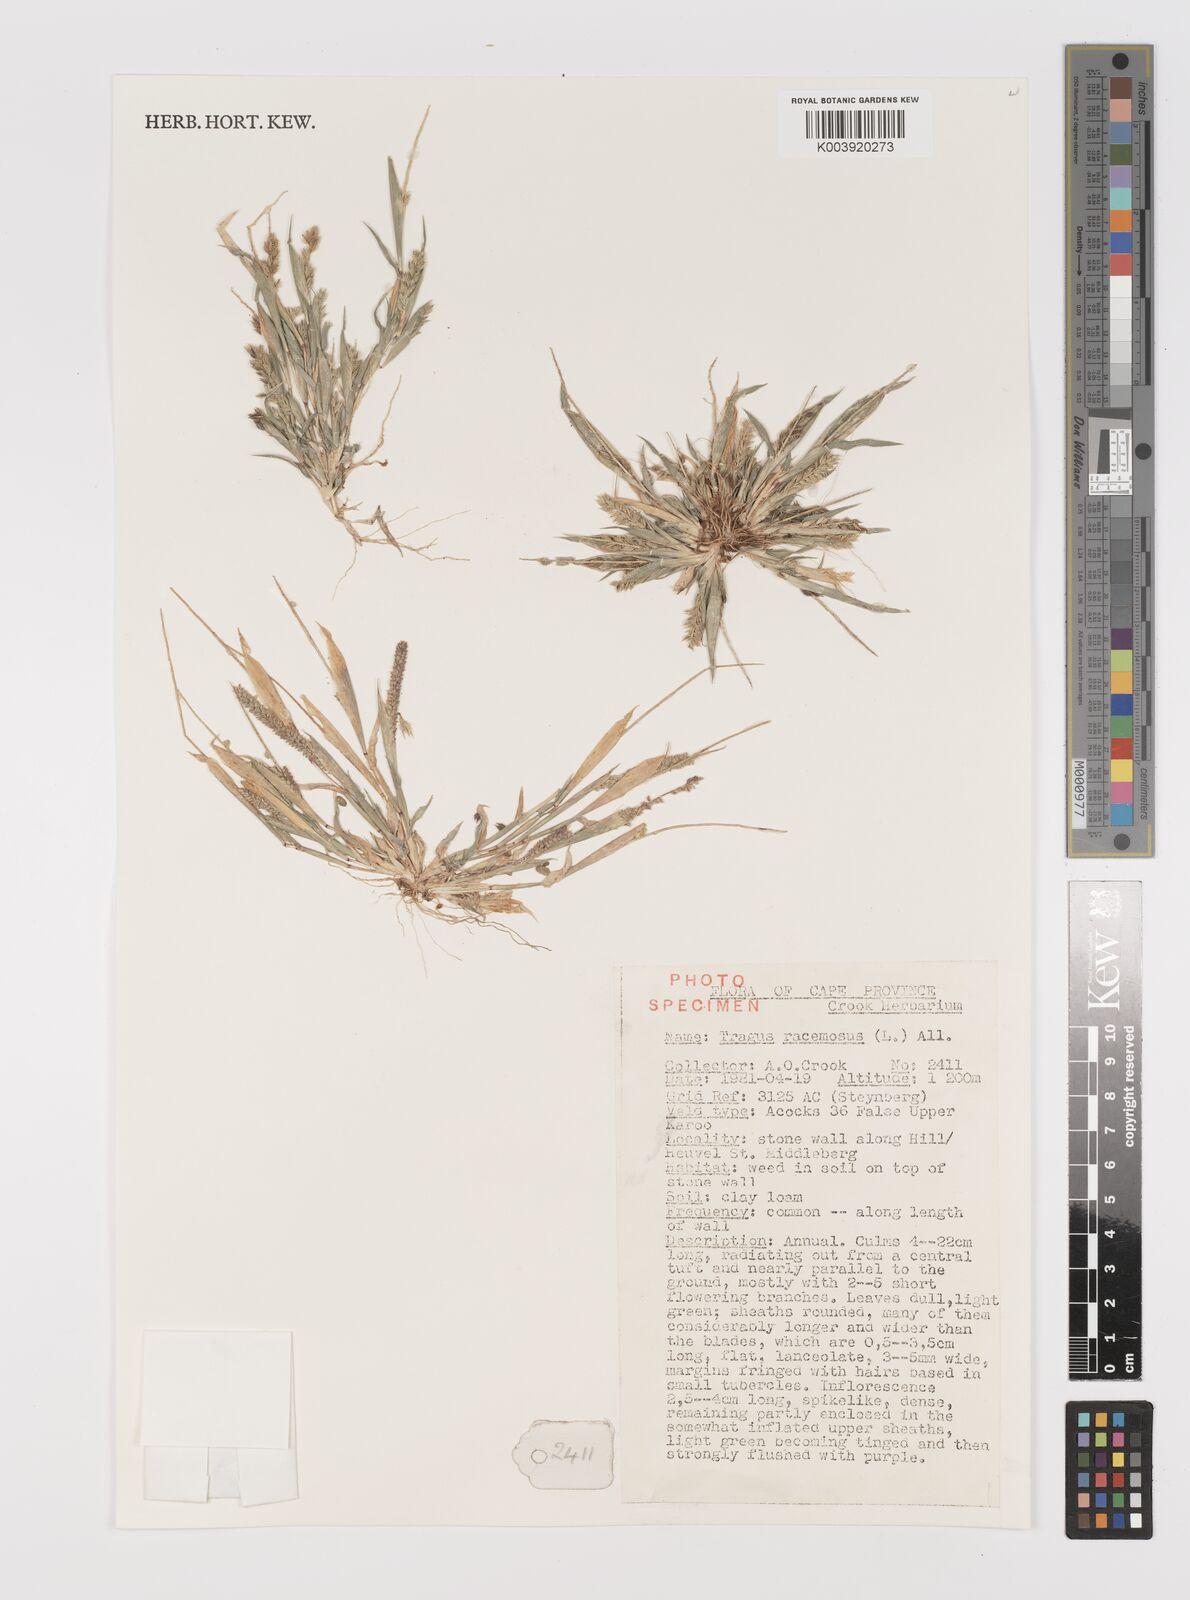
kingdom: Plantae
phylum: Tracheophyta
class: Liliopsida
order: Poales
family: Poaceae
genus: Tragus
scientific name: Tragus racemosus
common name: European bur-grass
